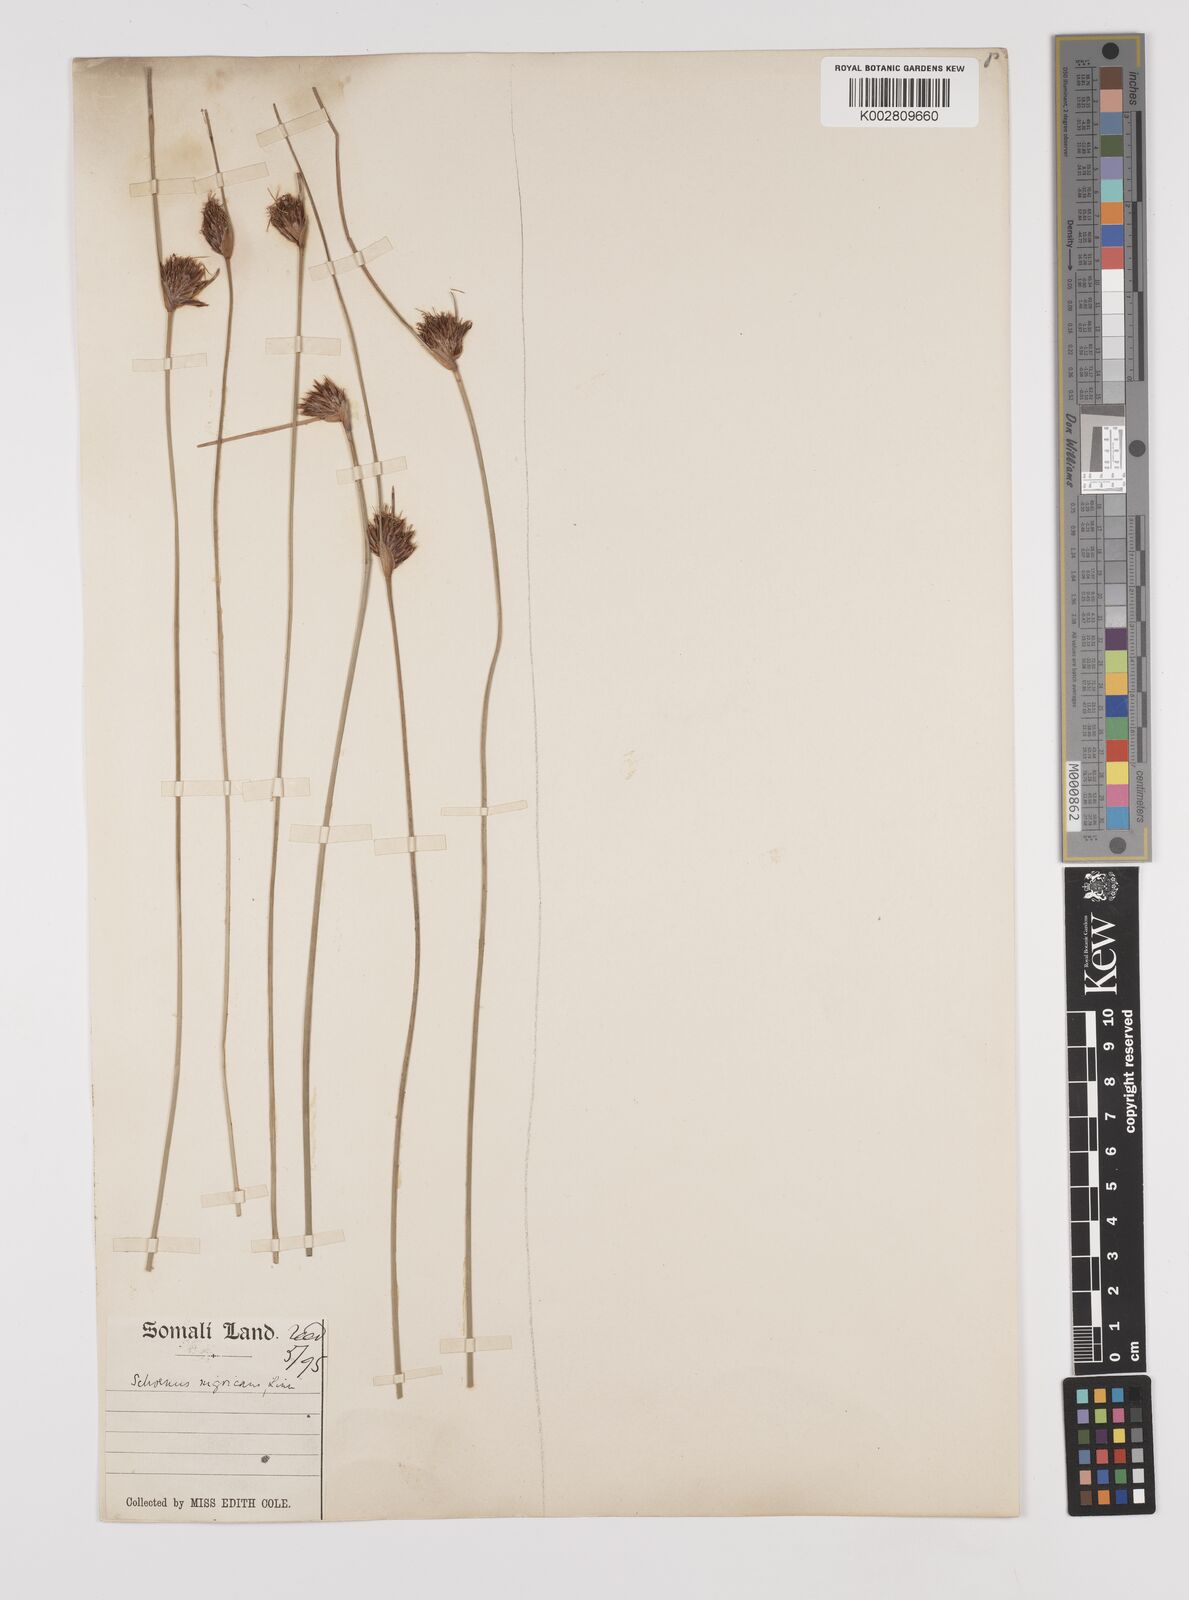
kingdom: Plantae
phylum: Tracheophyta
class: Liliopsida
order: Poales
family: Cyperaceae
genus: Schoenus
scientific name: Schoenus nigricans
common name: Black bog-rush
